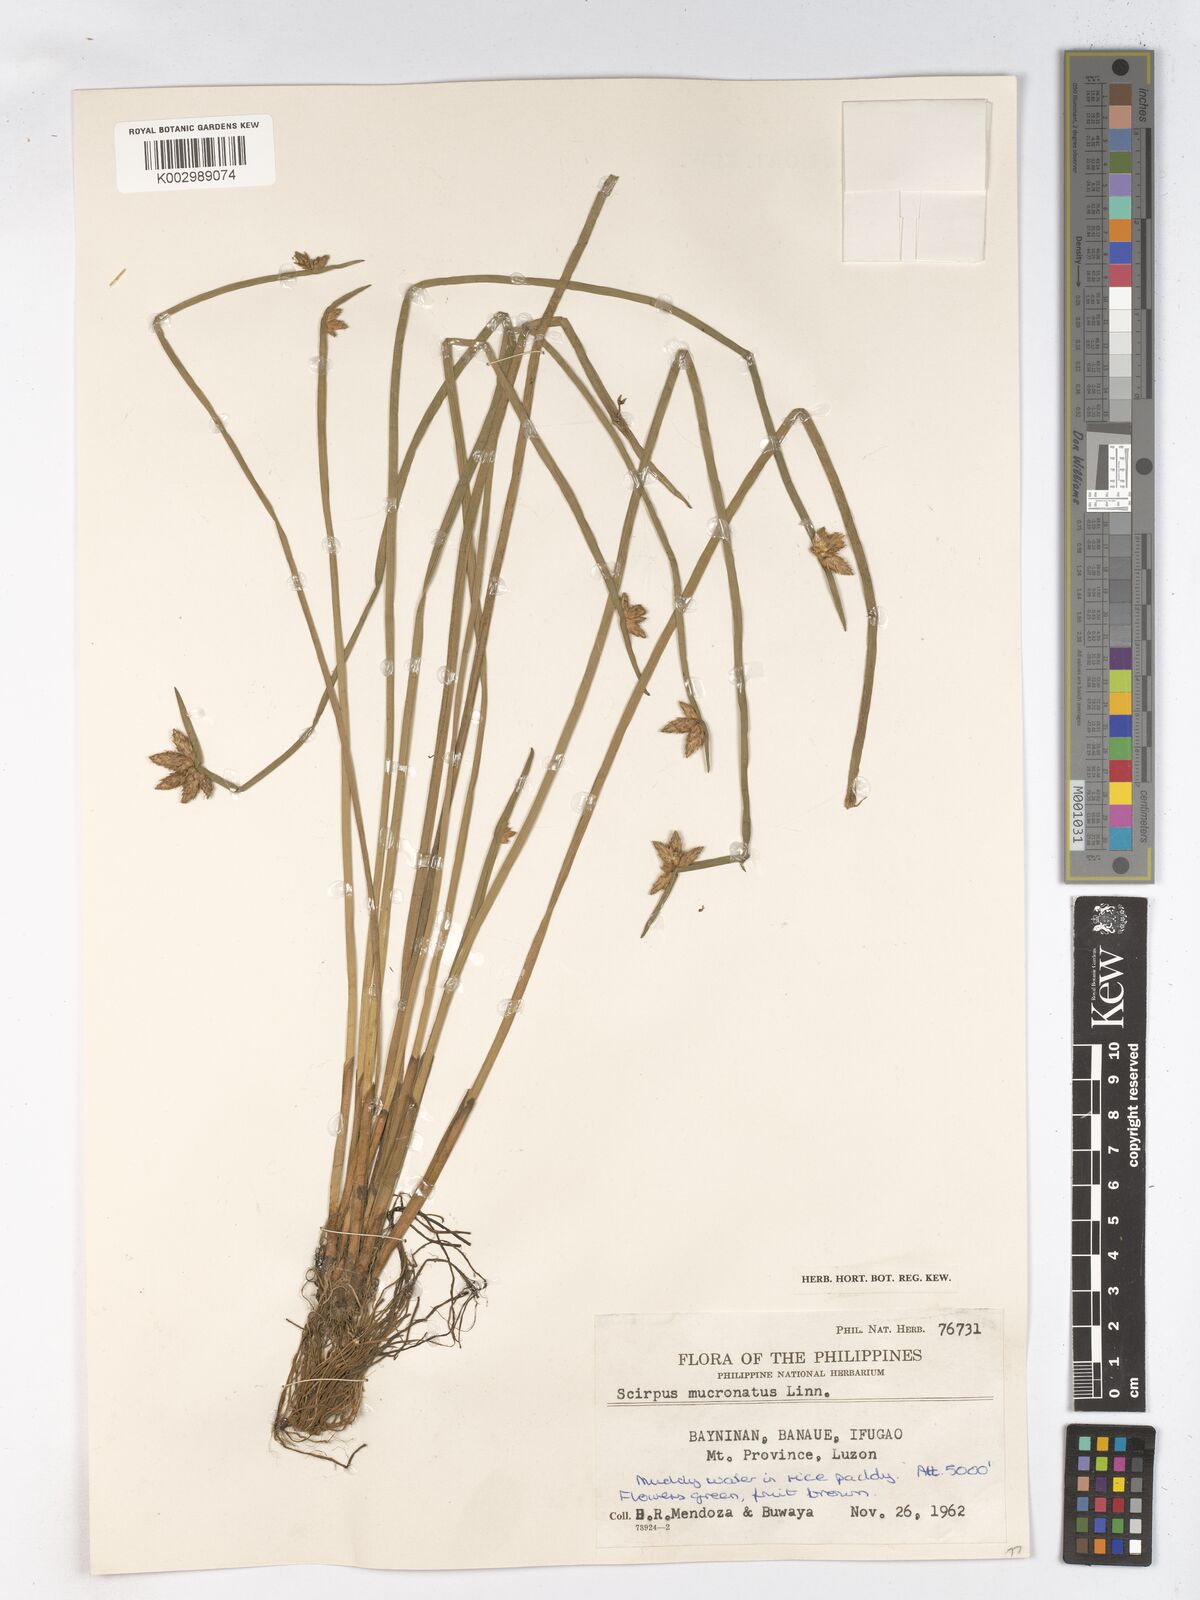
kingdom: Plantae
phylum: Tracheophyta
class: Liliopsida
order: Poales
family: Cyperaceae
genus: Schoenoplectiella
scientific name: Schoenoplectiella mucronata
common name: Bog bulrush
